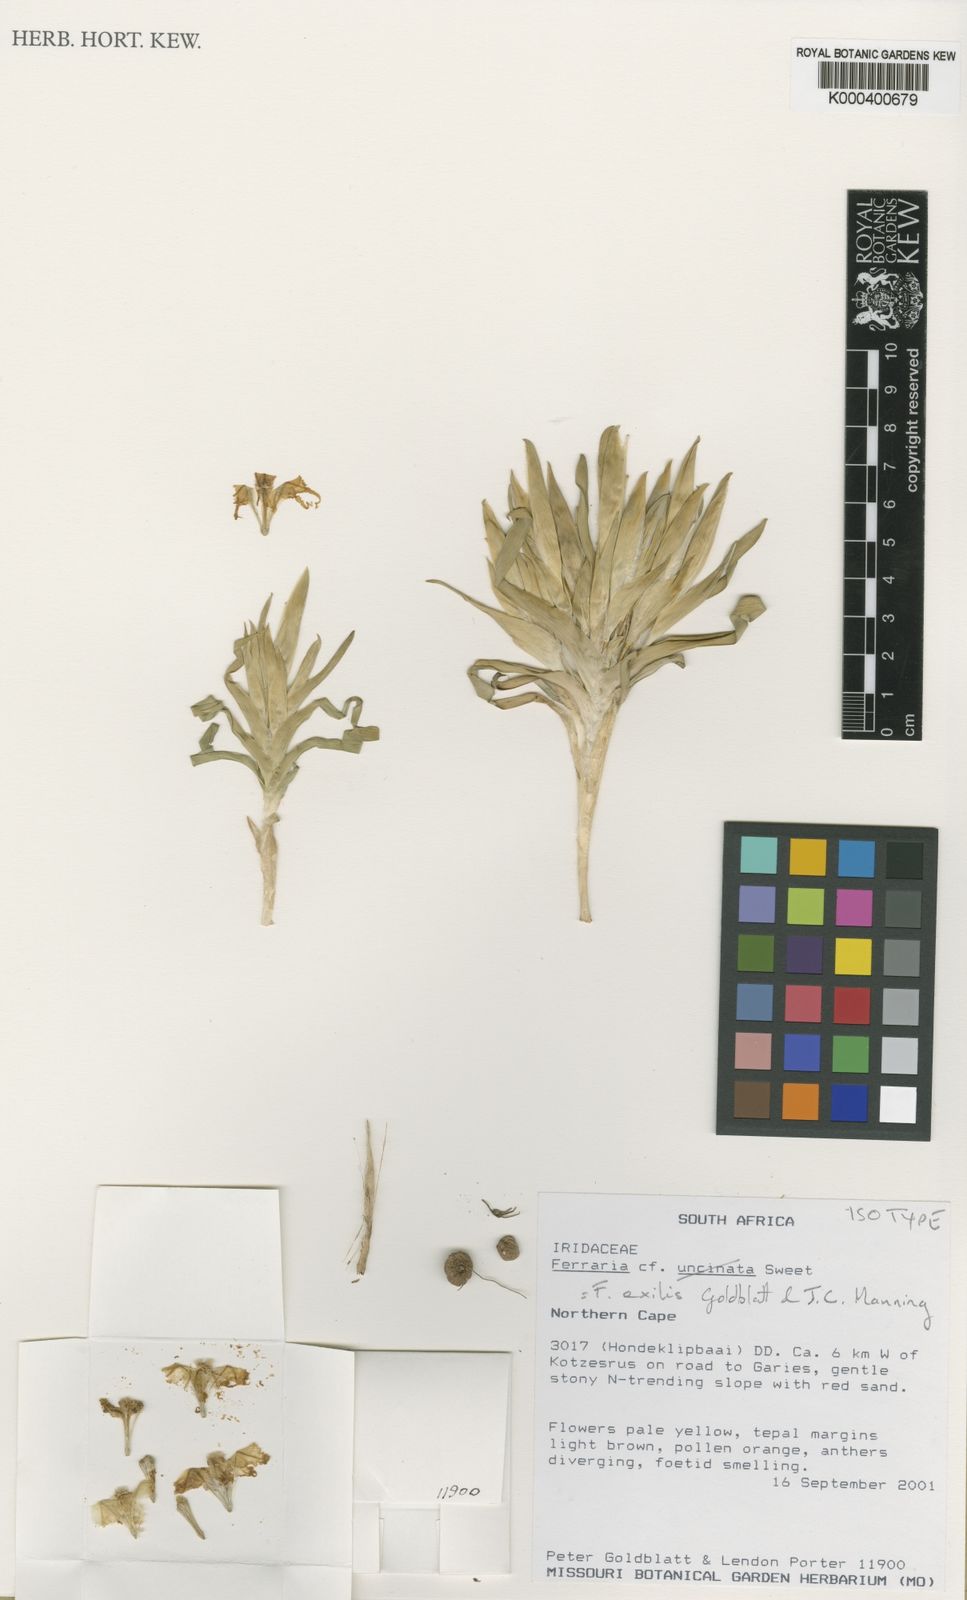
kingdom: Plantae
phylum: Tracheophyta
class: Liliopsida
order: Asparagales
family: Iridaceae
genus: Ferraria
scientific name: Ferraria
